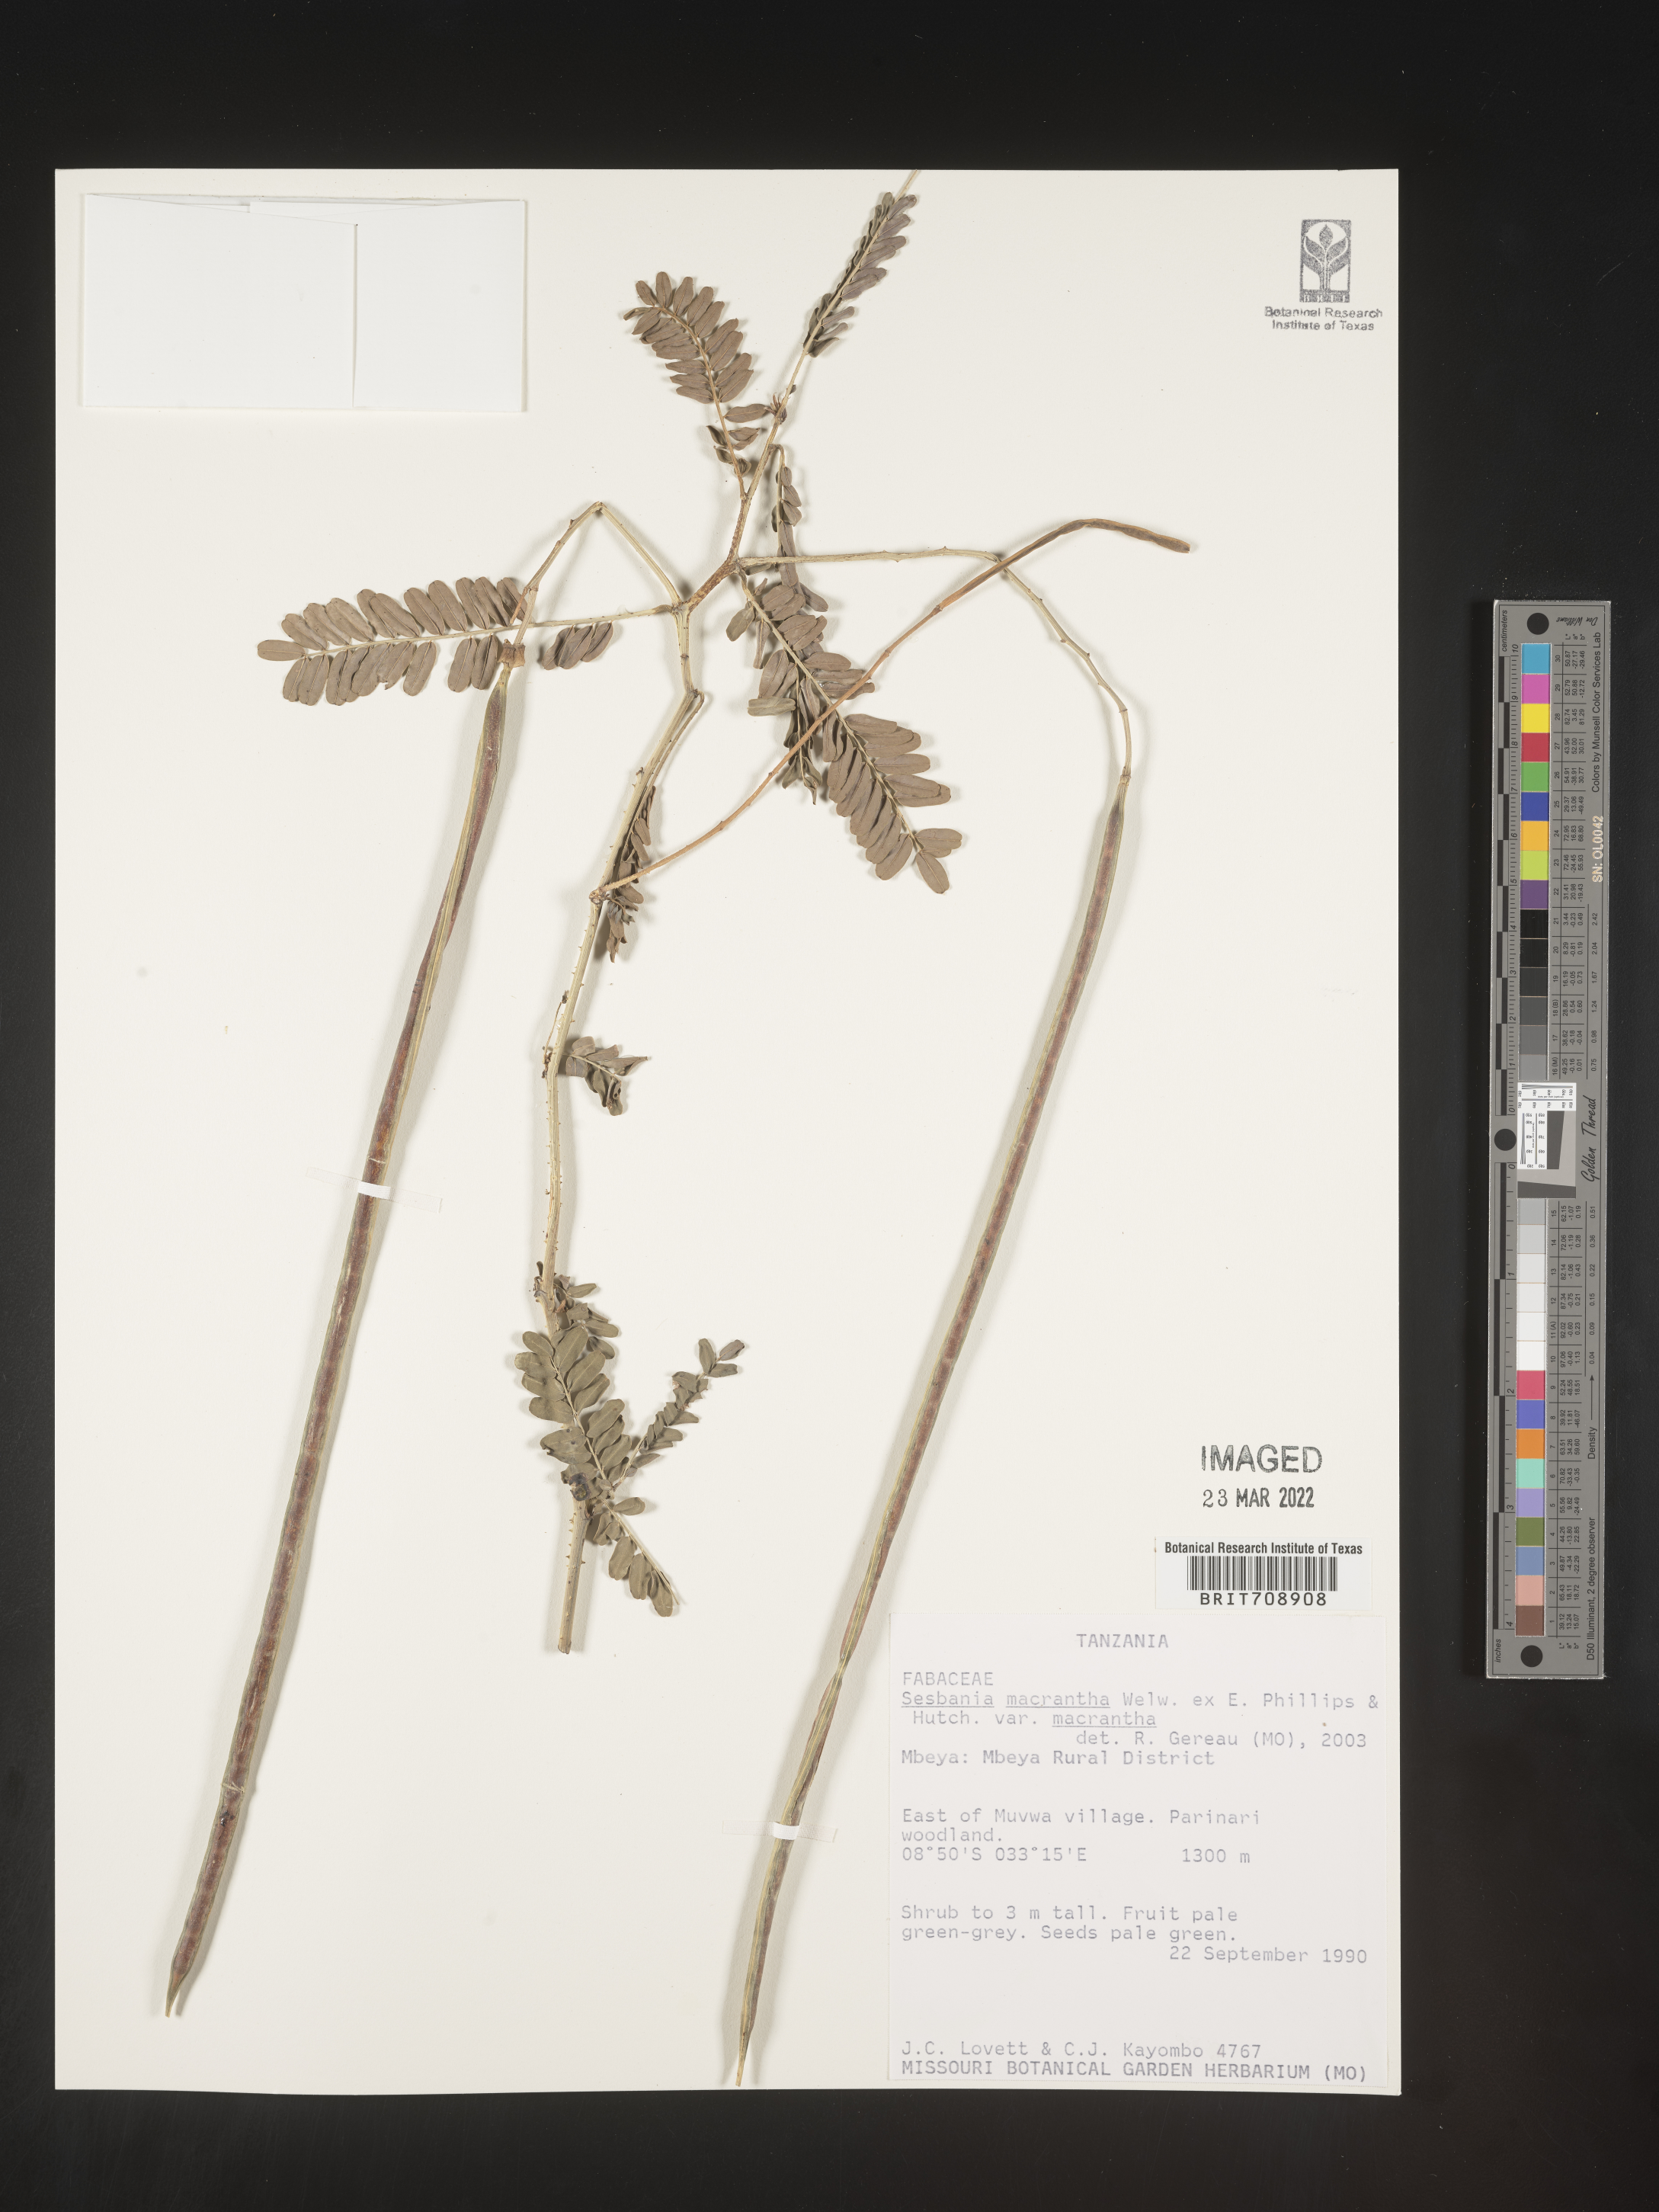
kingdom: Plantae
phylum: Tracheophyta
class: Magnoliopsida
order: Fabales
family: Fabaceae
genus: Sesbania
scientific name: Sesbania
